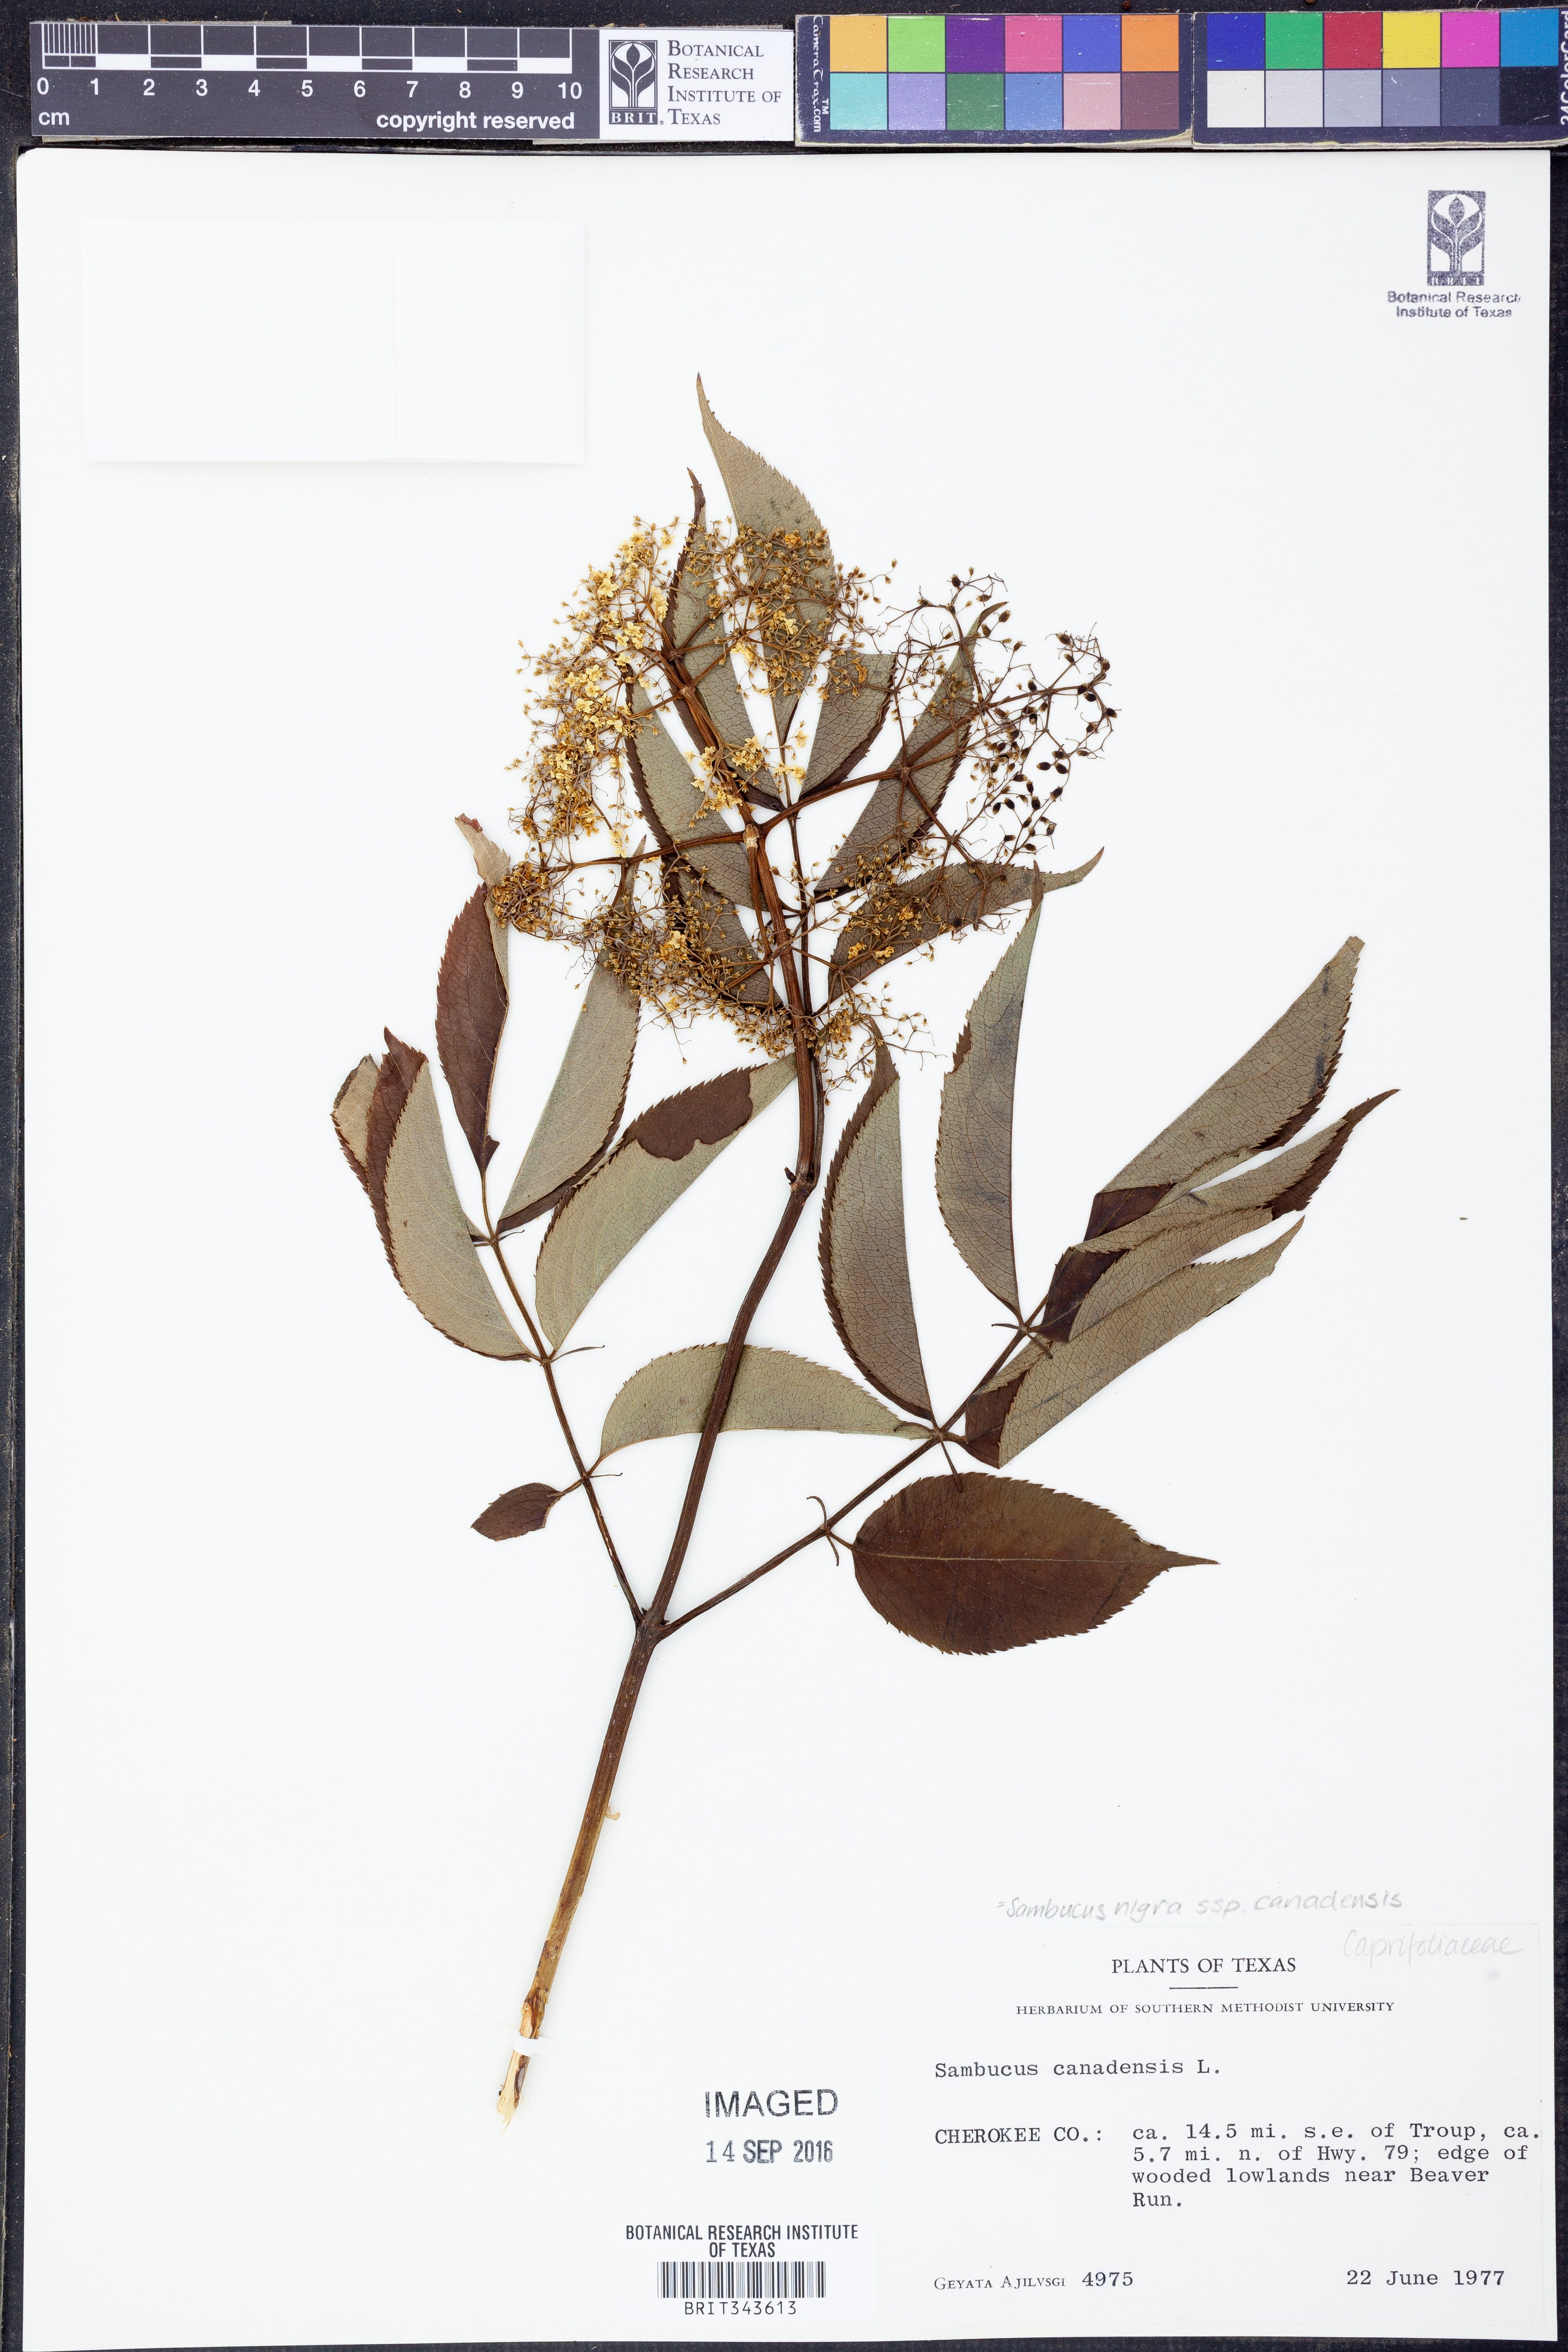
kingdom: Plantae
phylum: Tracheophyta
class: Magnoliopsida
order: Dipsacales
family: Viburnaceae
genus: Sambucus
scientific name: Sambucus canadensis
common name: American elder
